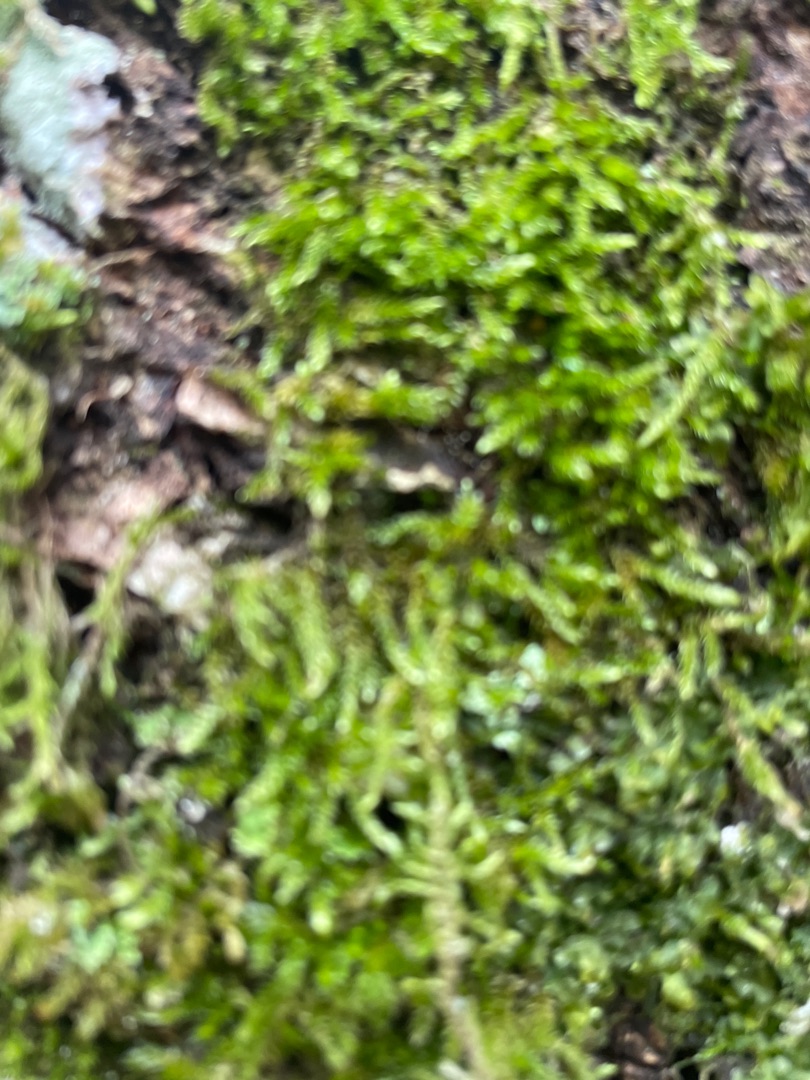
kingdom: Plantae
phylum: Bryophyta
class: Bryopsida
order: Hypnales
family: Hypnaceae
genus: Hypnum
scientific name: Hypnum
